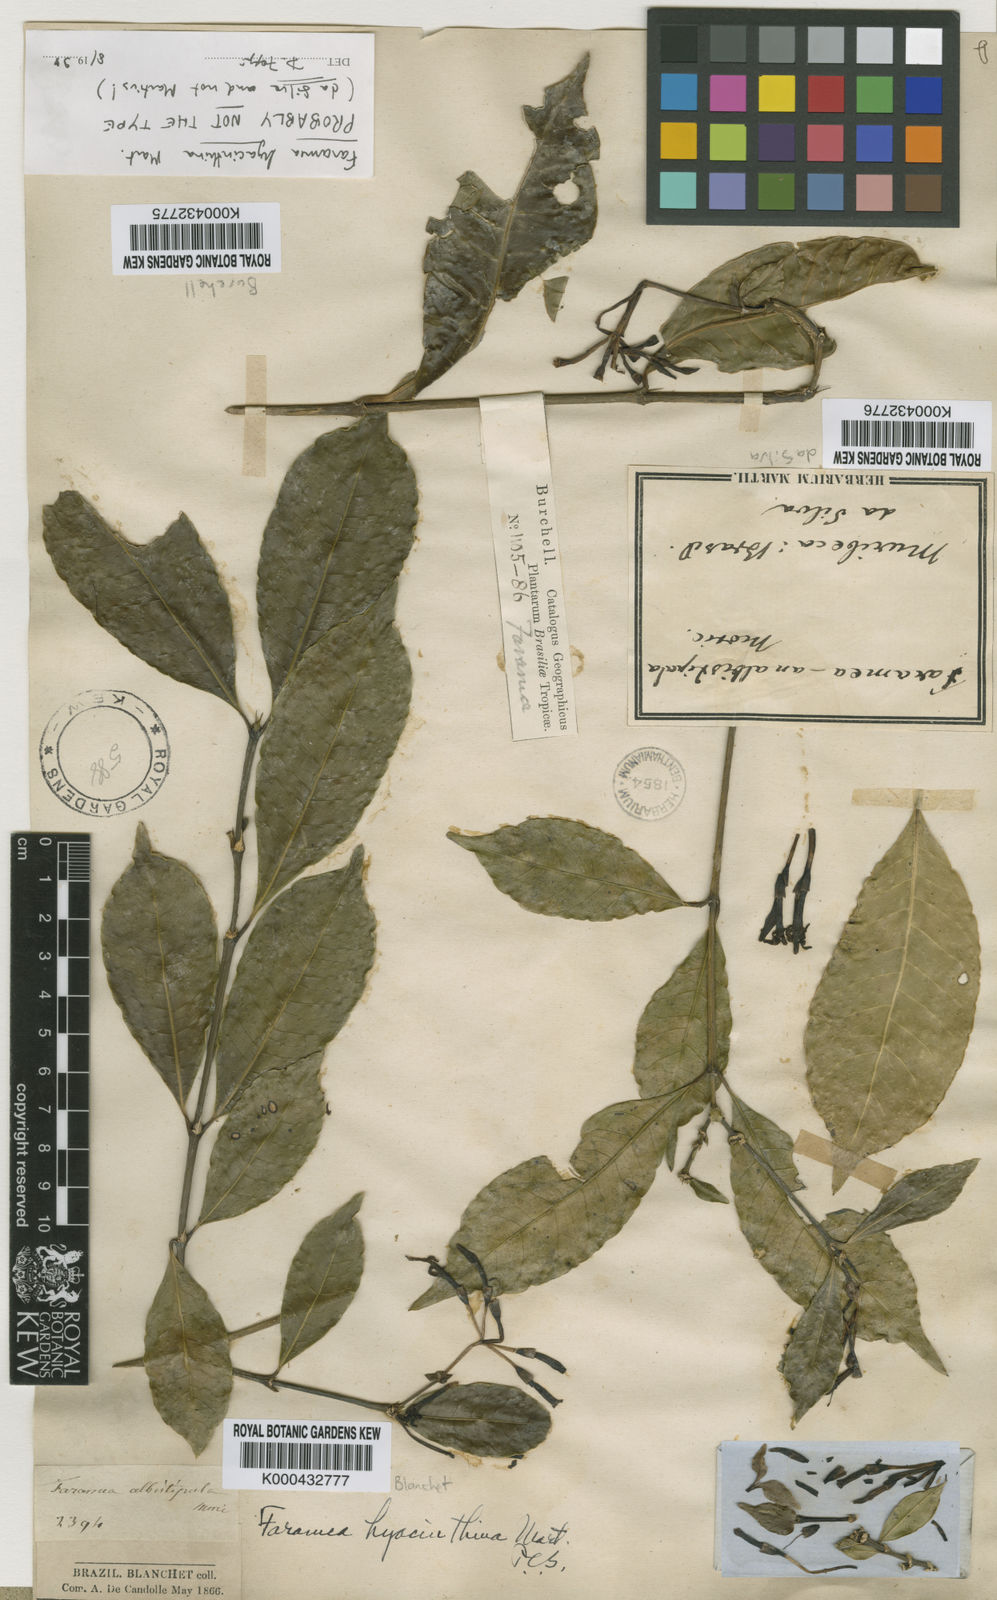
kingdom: Plantae
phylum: Tracheophyta
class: Magnoliopsida
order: Gentianales
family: Rubiaceae
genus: Faramea
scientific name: Faramea hyacinthina
